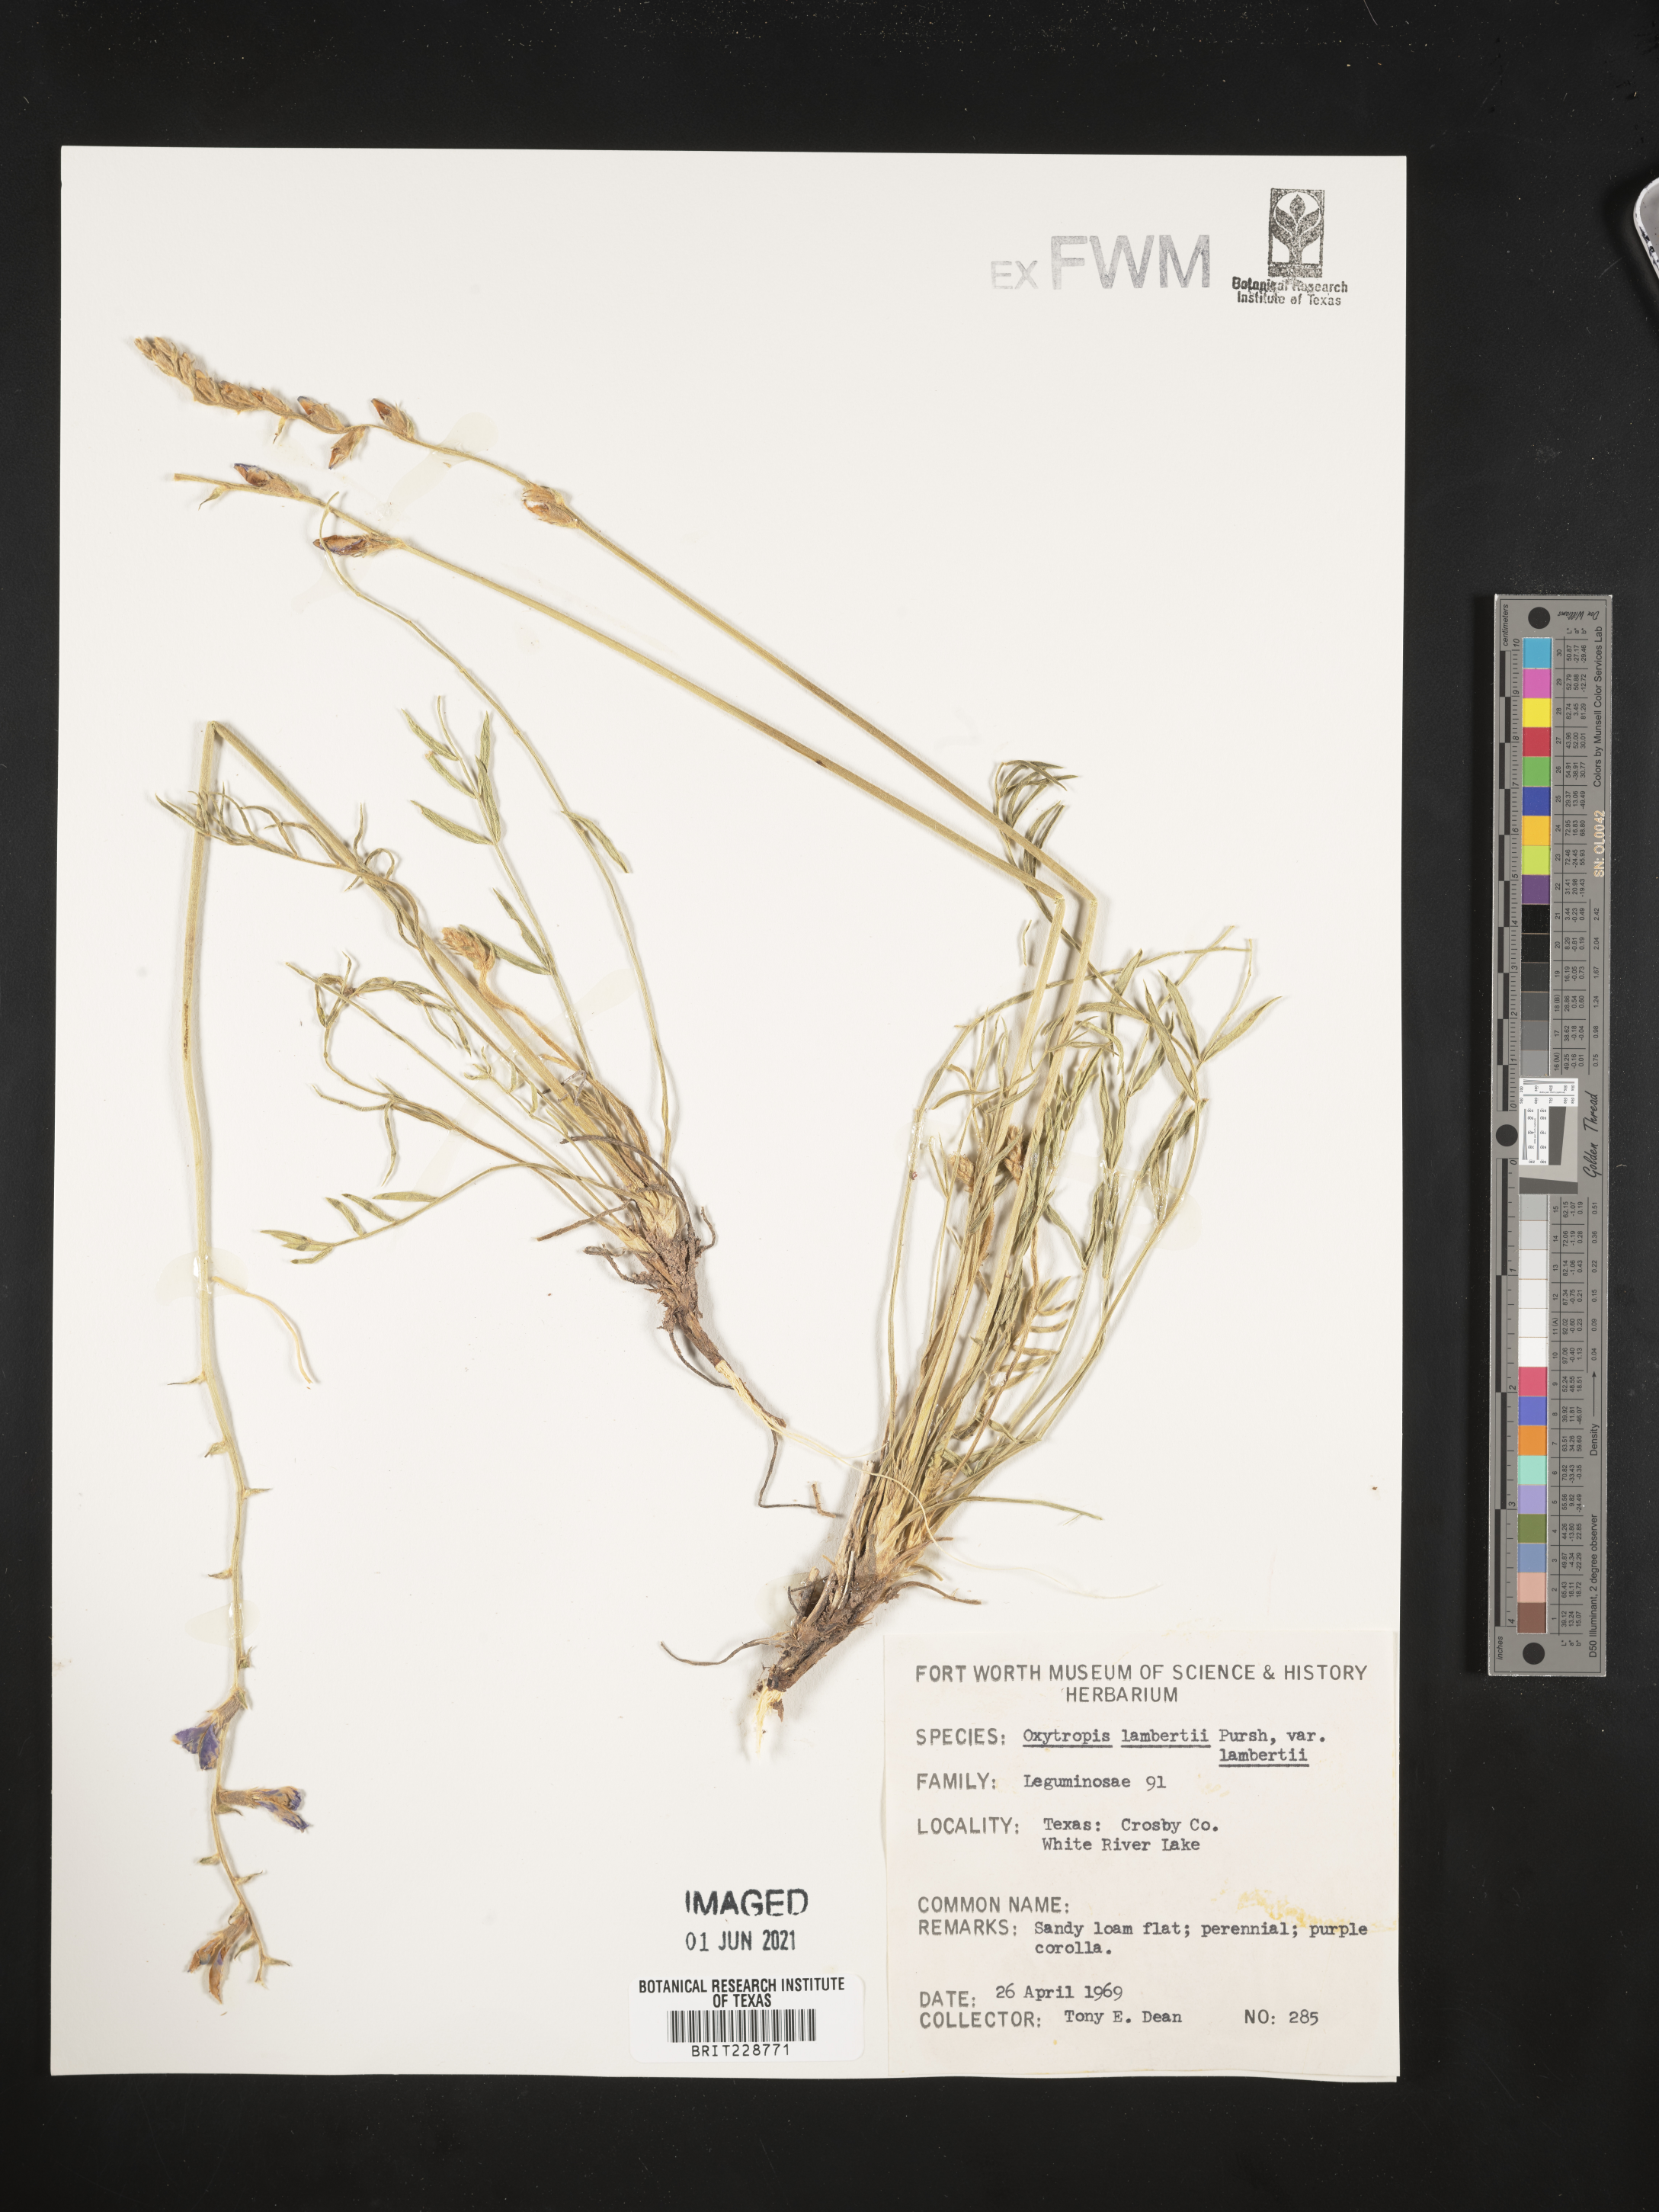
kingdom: Plantae
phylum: Tracheophyta
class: Magnoliopsida
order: Fabales
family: Fabaceae
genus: Oxytropis
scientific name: Oxytropis lambertii
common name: Purple locoweed
